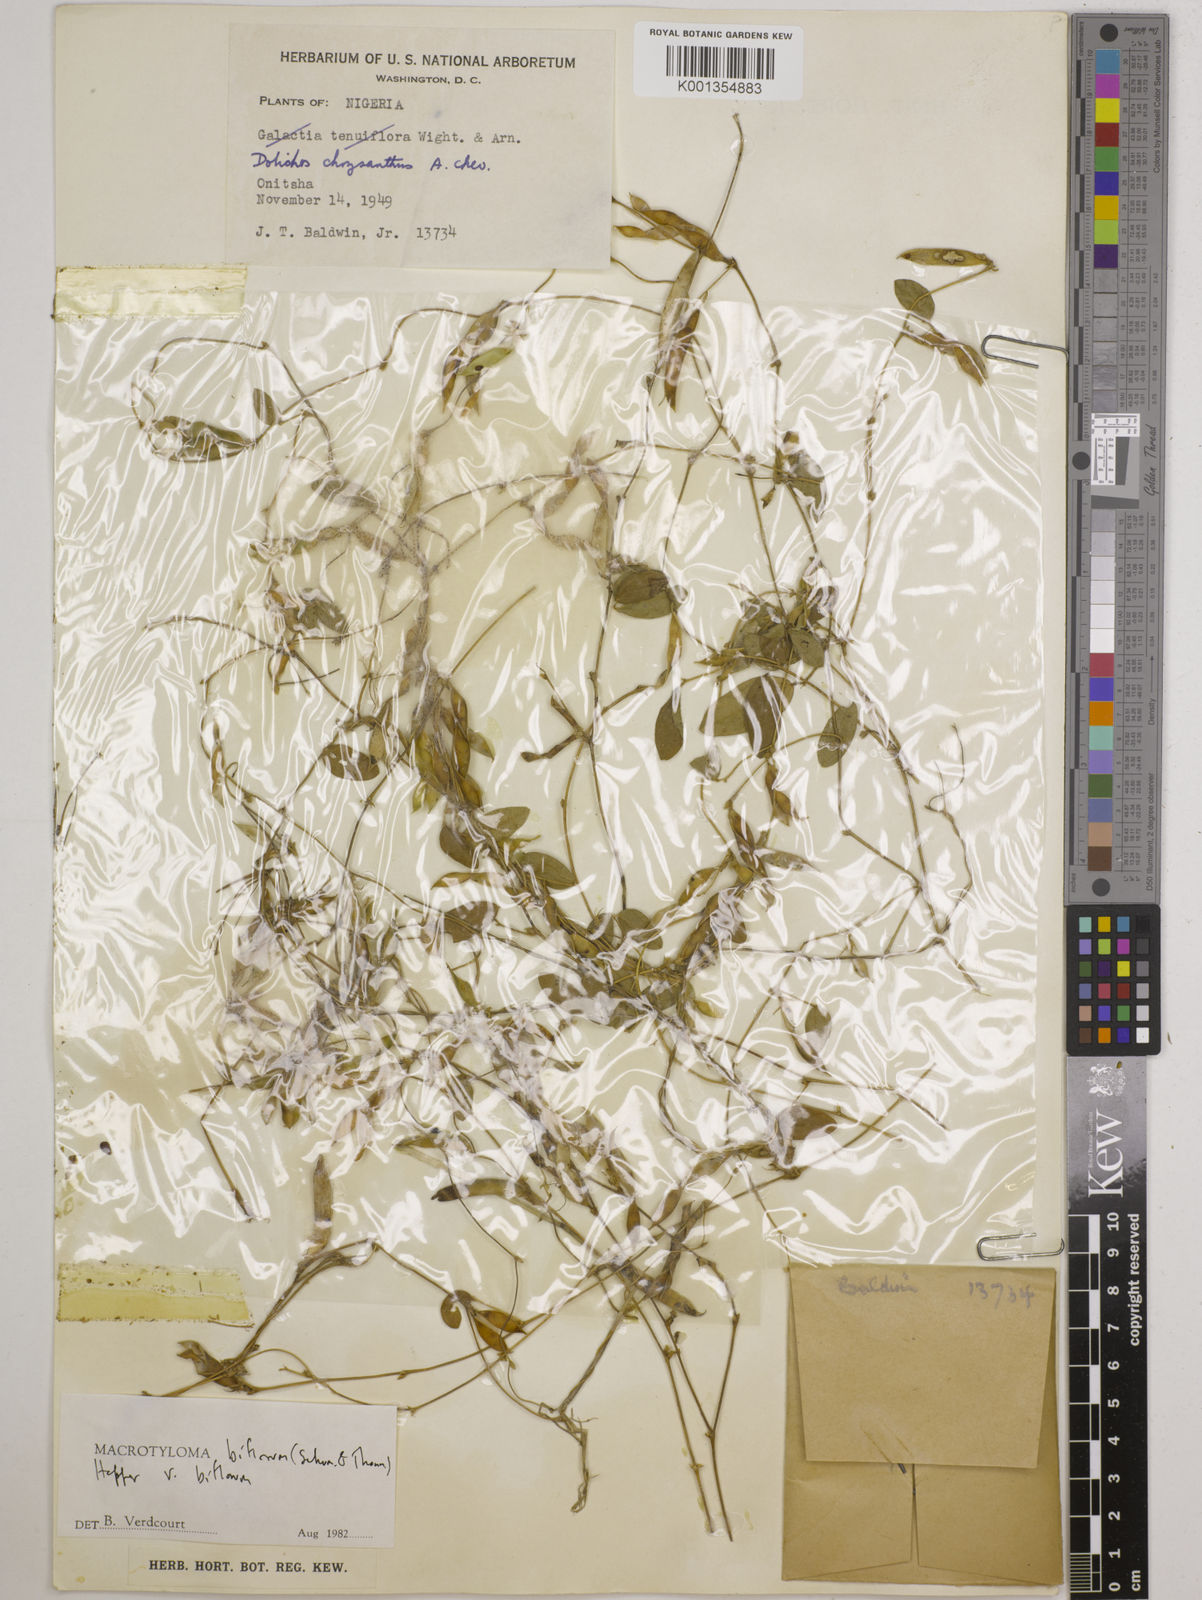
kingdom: Plantae
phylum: Tracheophyta
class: Magnoliopsida
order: Fabales
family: Fabaceae
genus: Macrotyloma
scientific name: Macrotyloma biflorum
